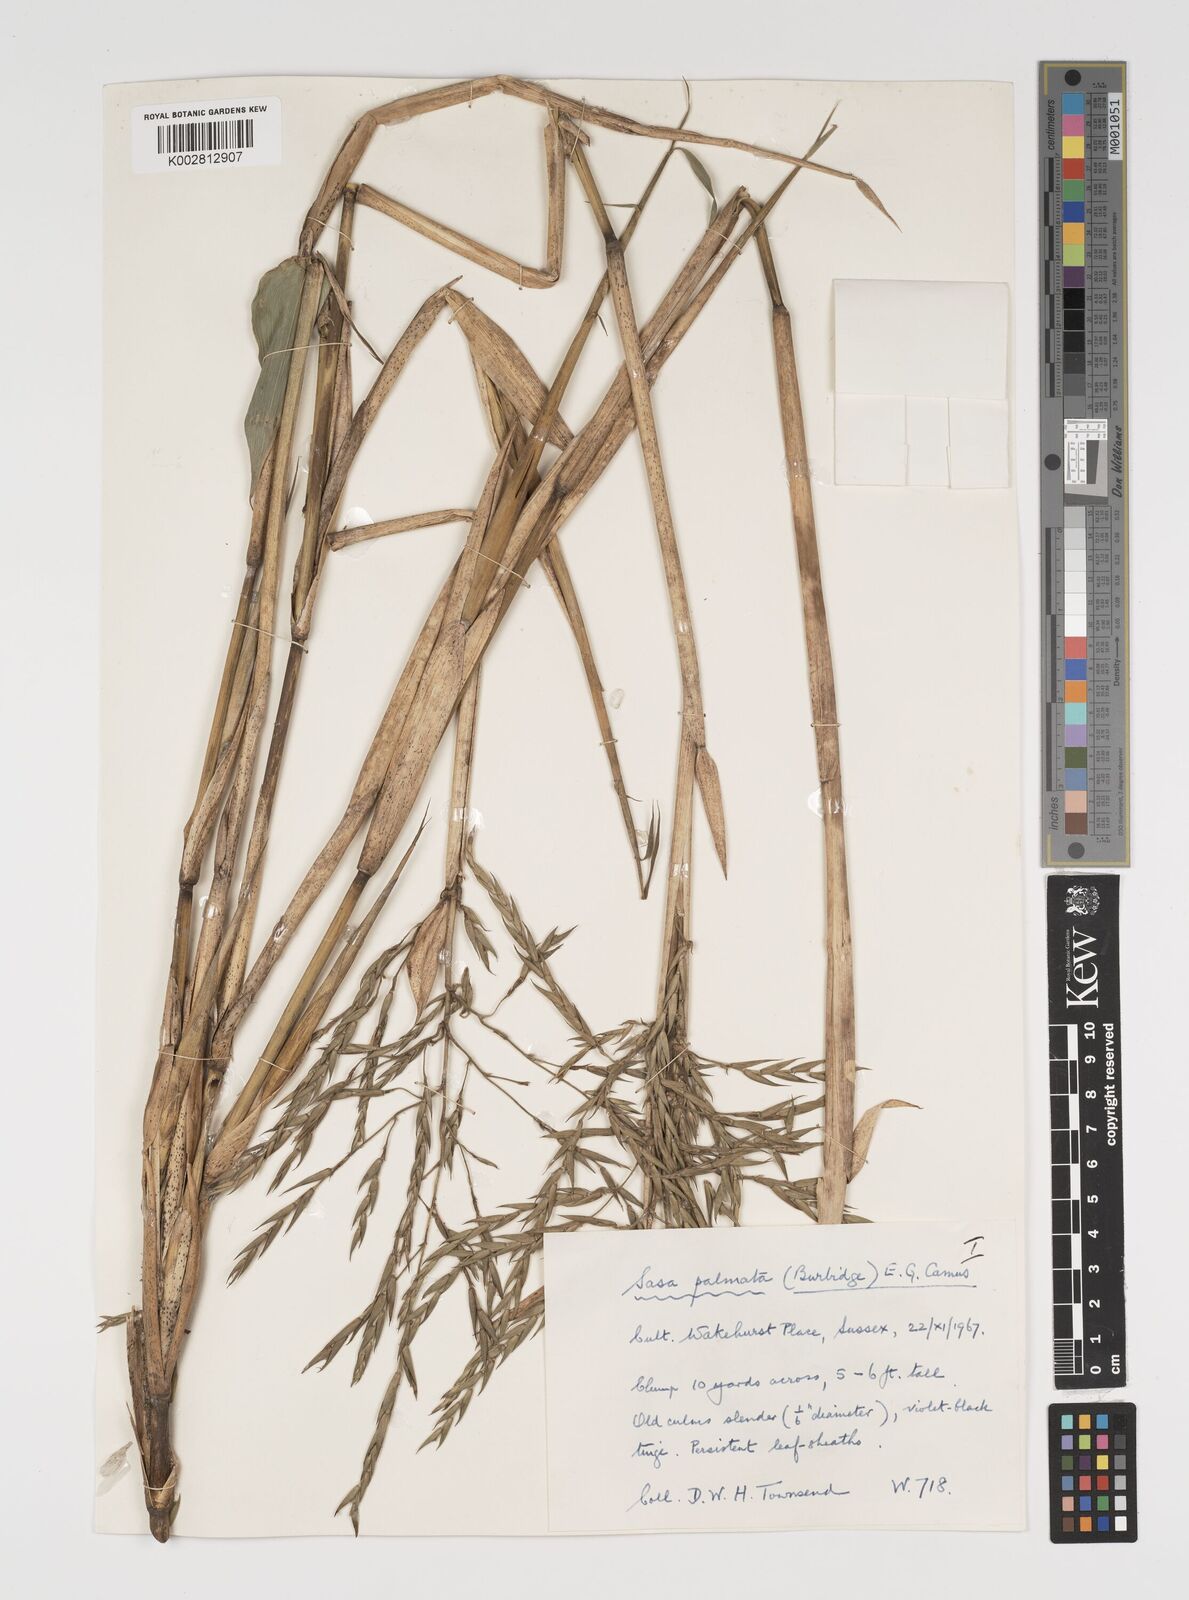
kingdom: Plantae
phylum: Tracheophyta
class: Liliopsida
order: Poales
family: Poaceae
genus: Sasa
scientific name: Sasa palmata
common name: Broad-leaved bamboo
